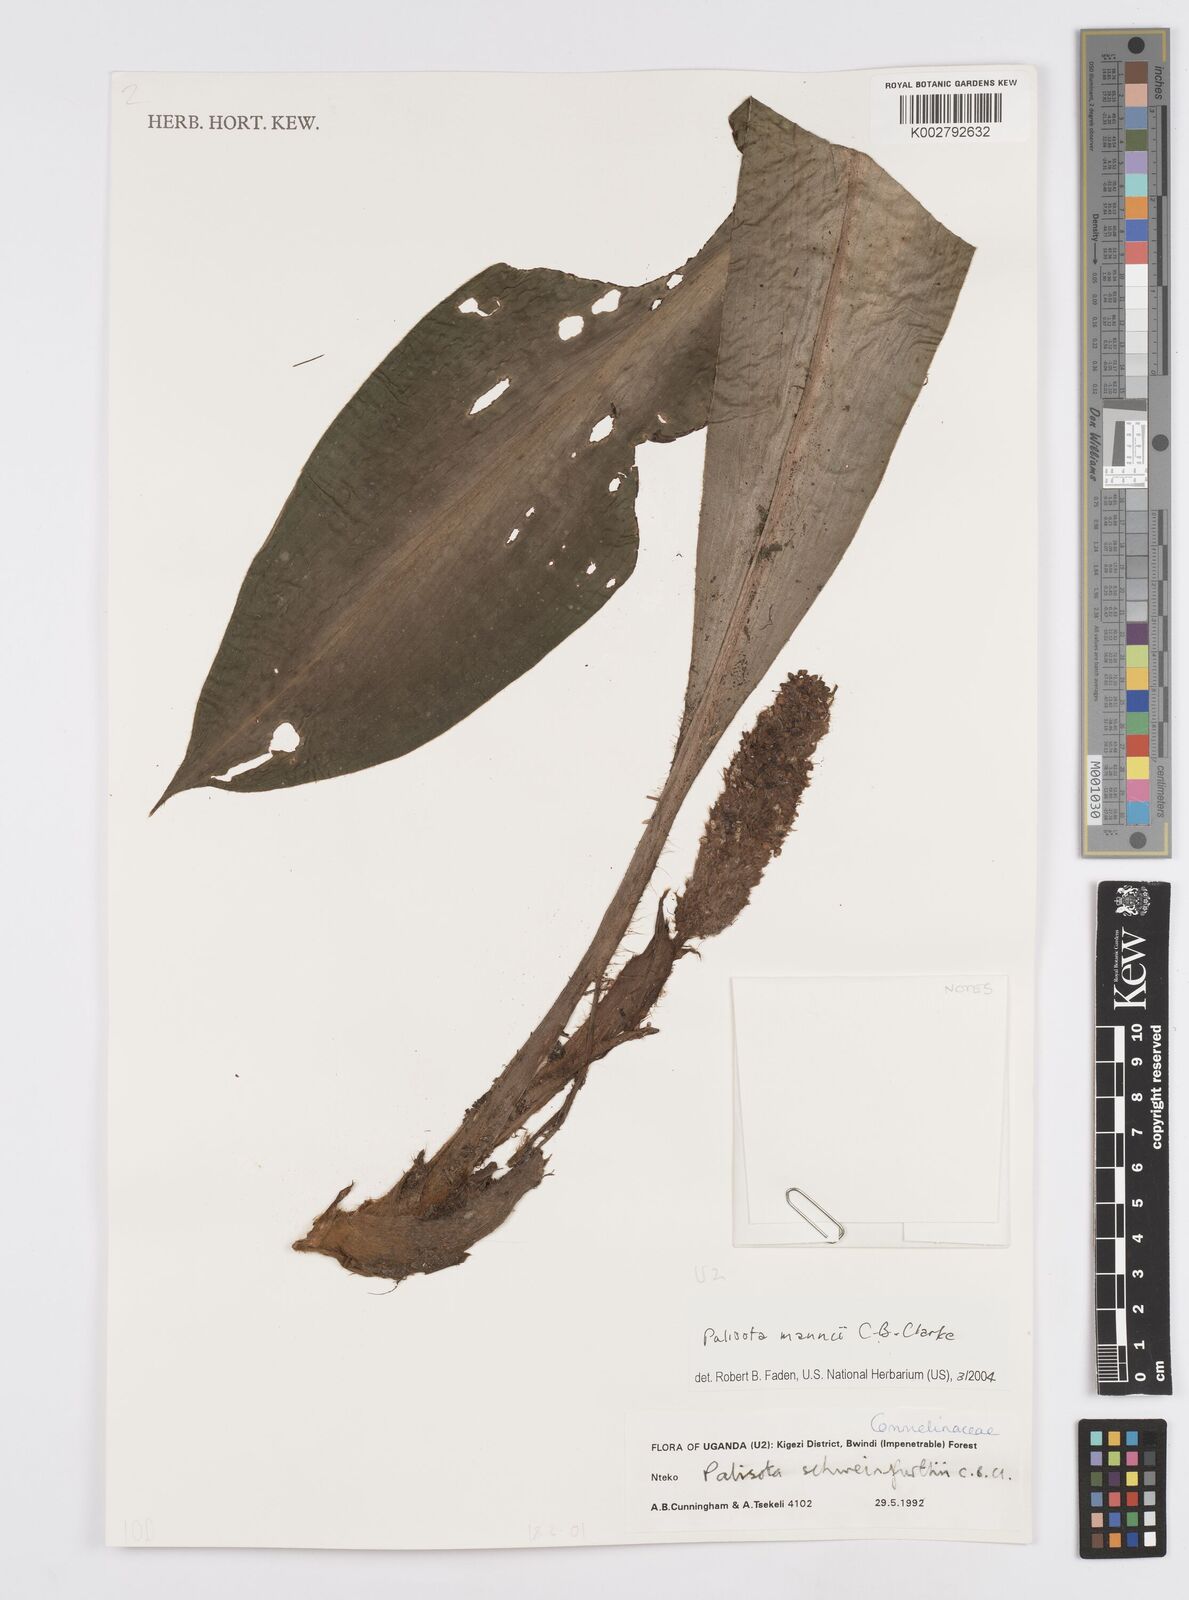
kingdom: Plantae
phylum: Tracheophyta
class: Liliopsida
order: Commelinales
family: Commelinaceae
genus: Palisota
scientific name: Palisota mannii
